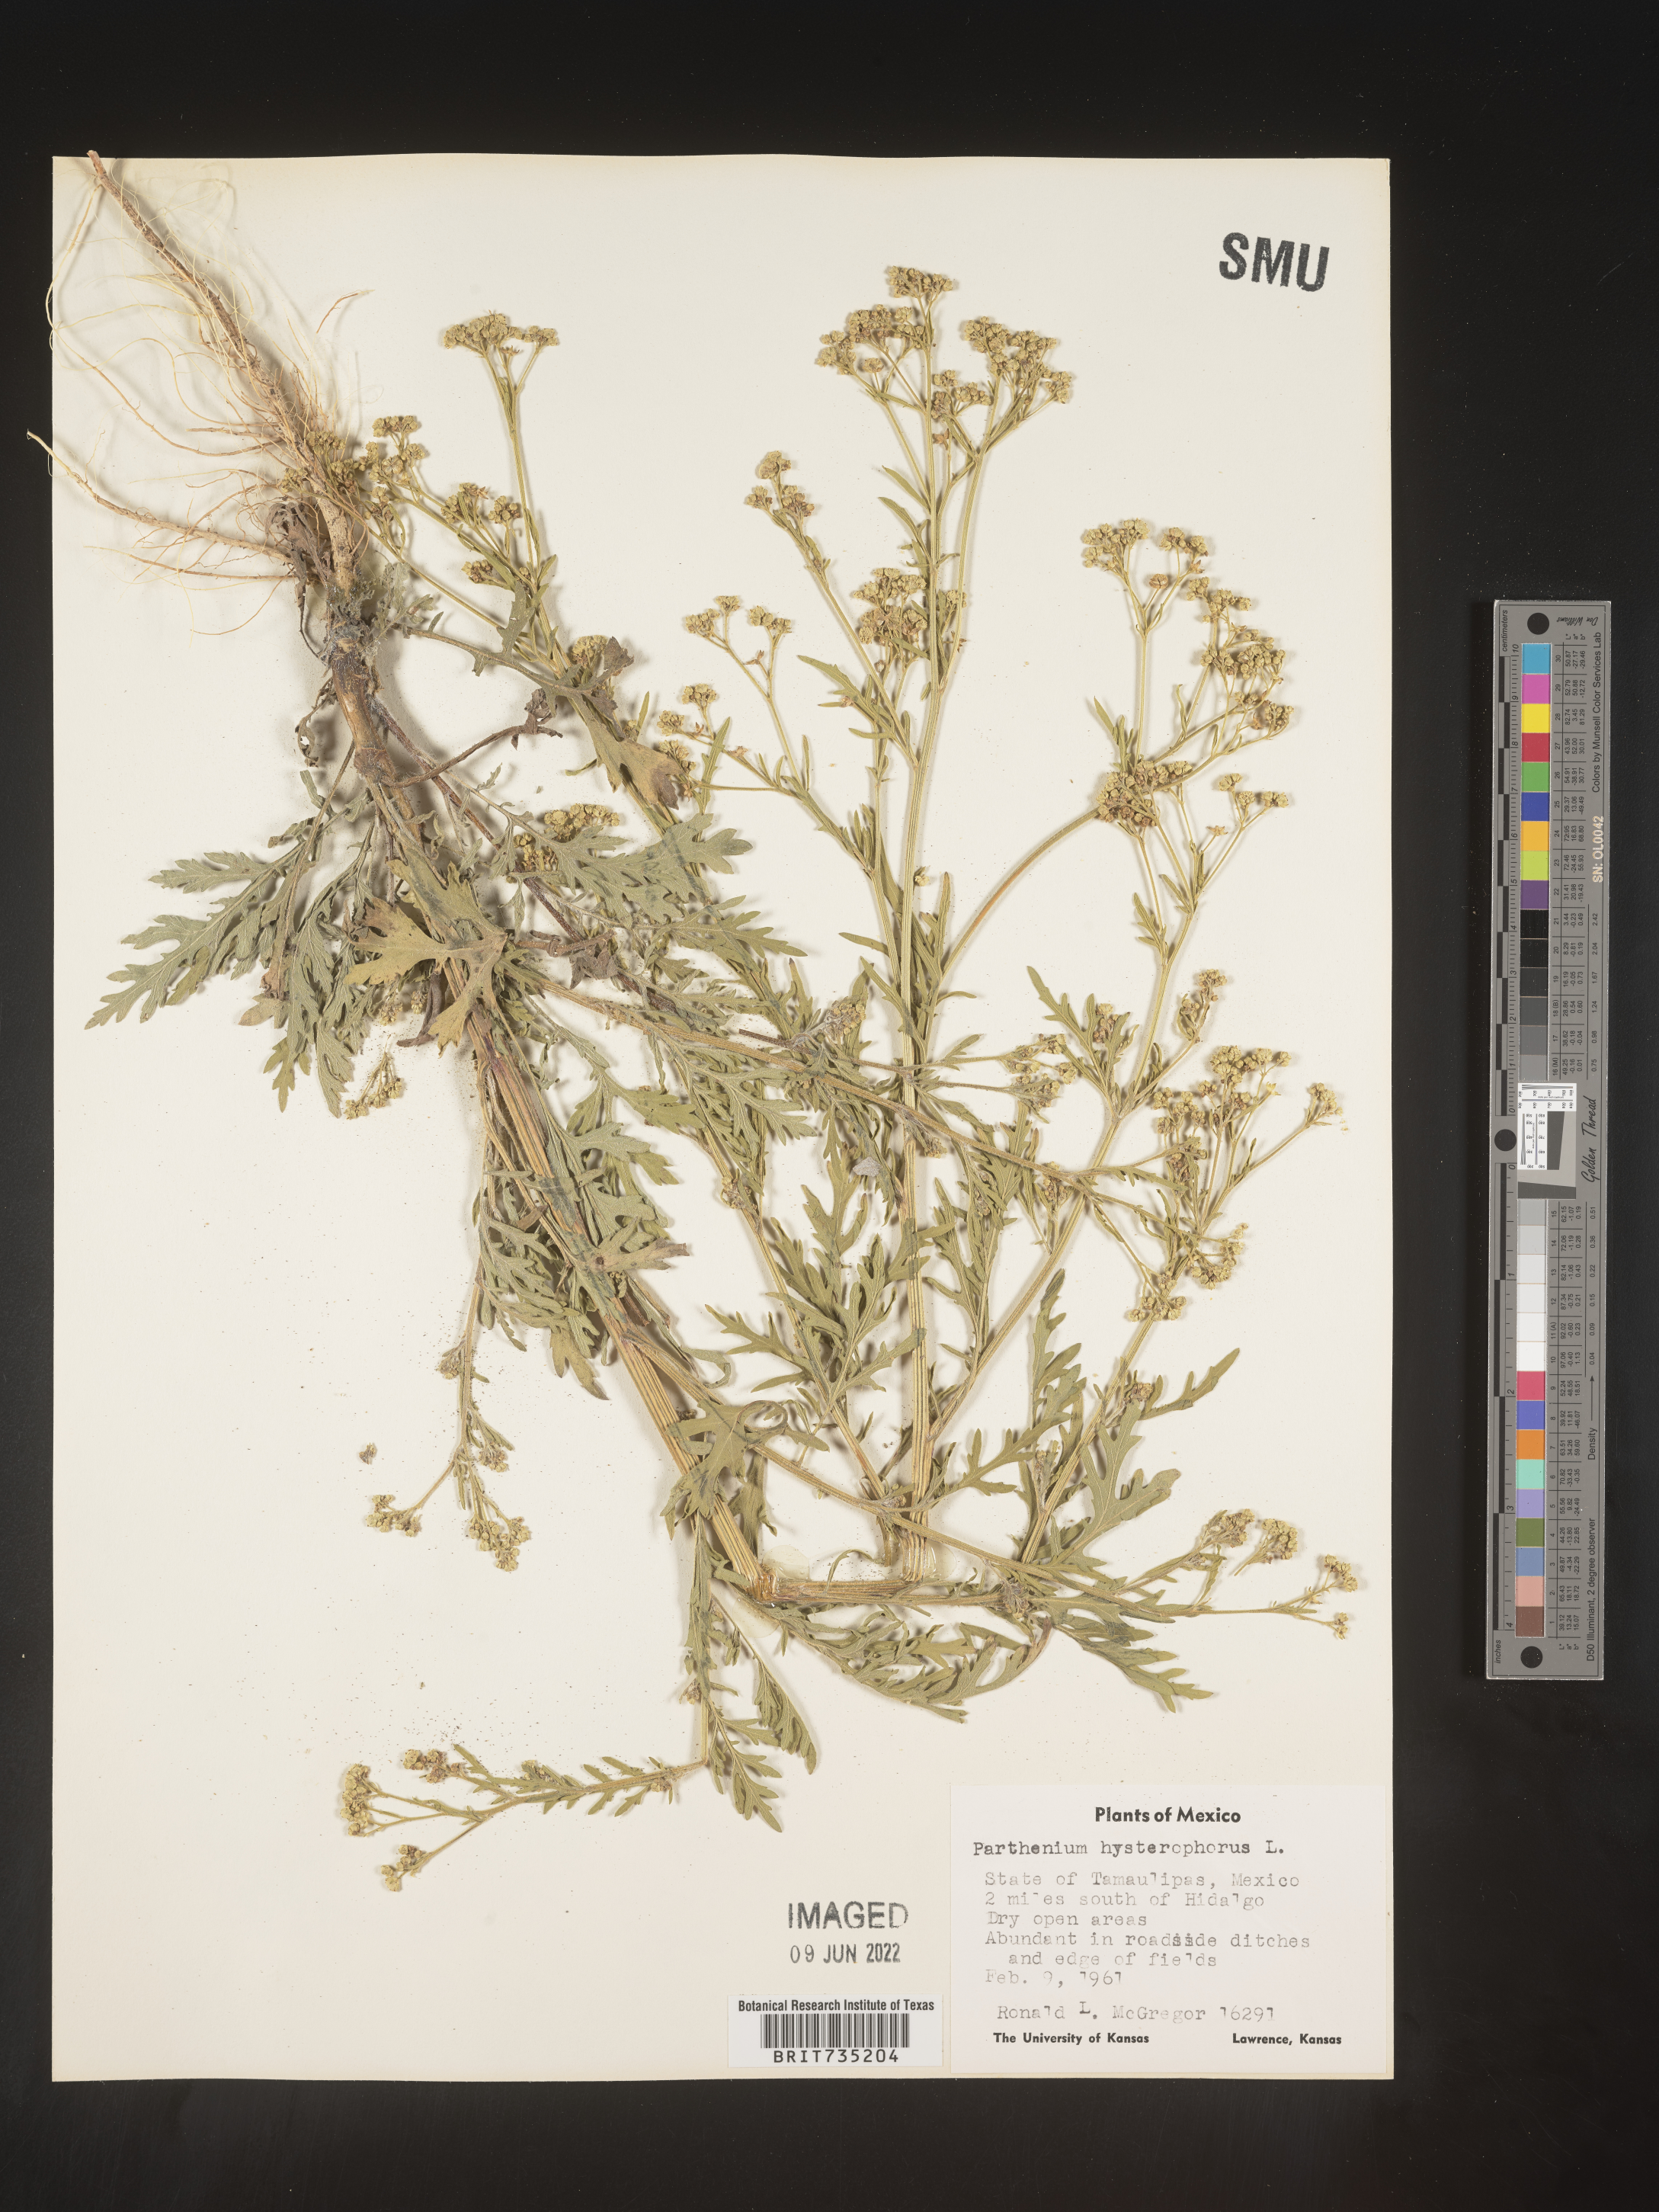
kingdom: Plantae
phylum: Tracheophyta
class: Magnoliopsida
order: Asterales
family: Asteraceae
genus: Parthenium
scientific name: Parthenium hysterophorus
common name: Santa maria feverfew
